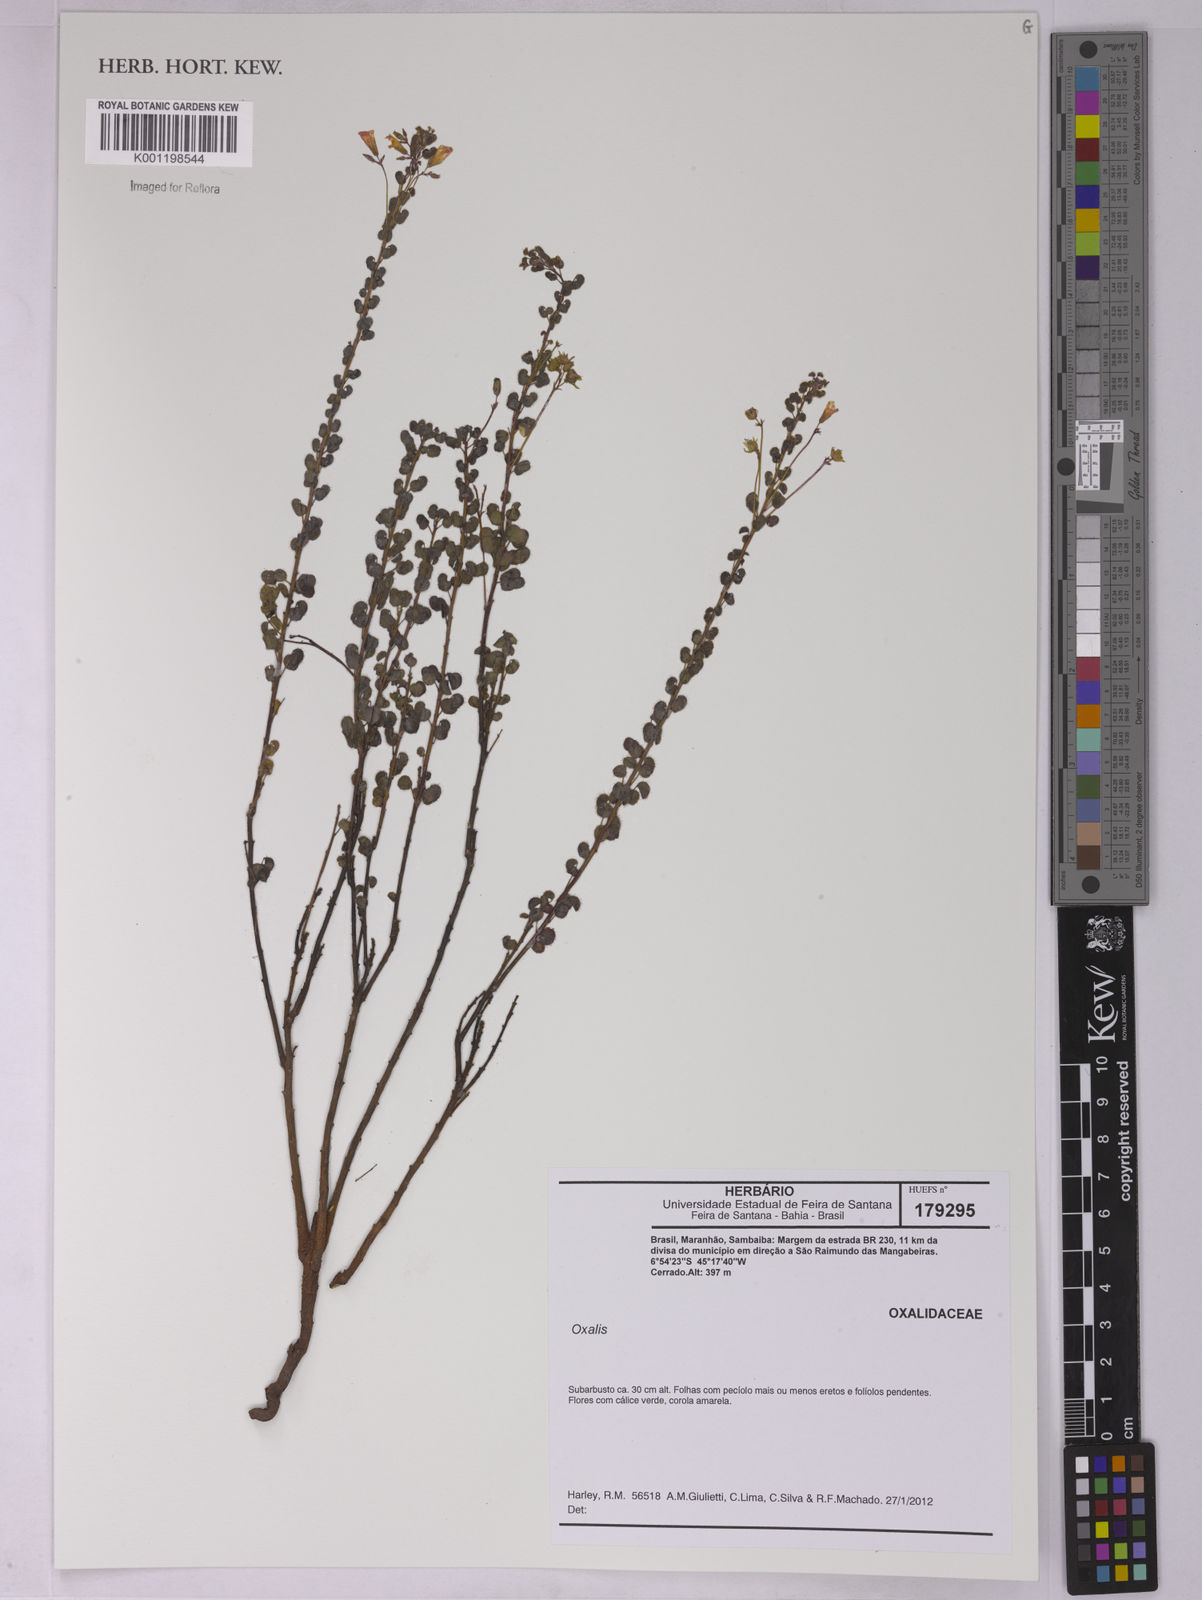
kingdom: Plantae
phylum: Tracheophyta
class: Magnoliopsida
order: Oxalidales
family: Oxalidaceae
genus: Oxalis
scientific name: Oxalis
